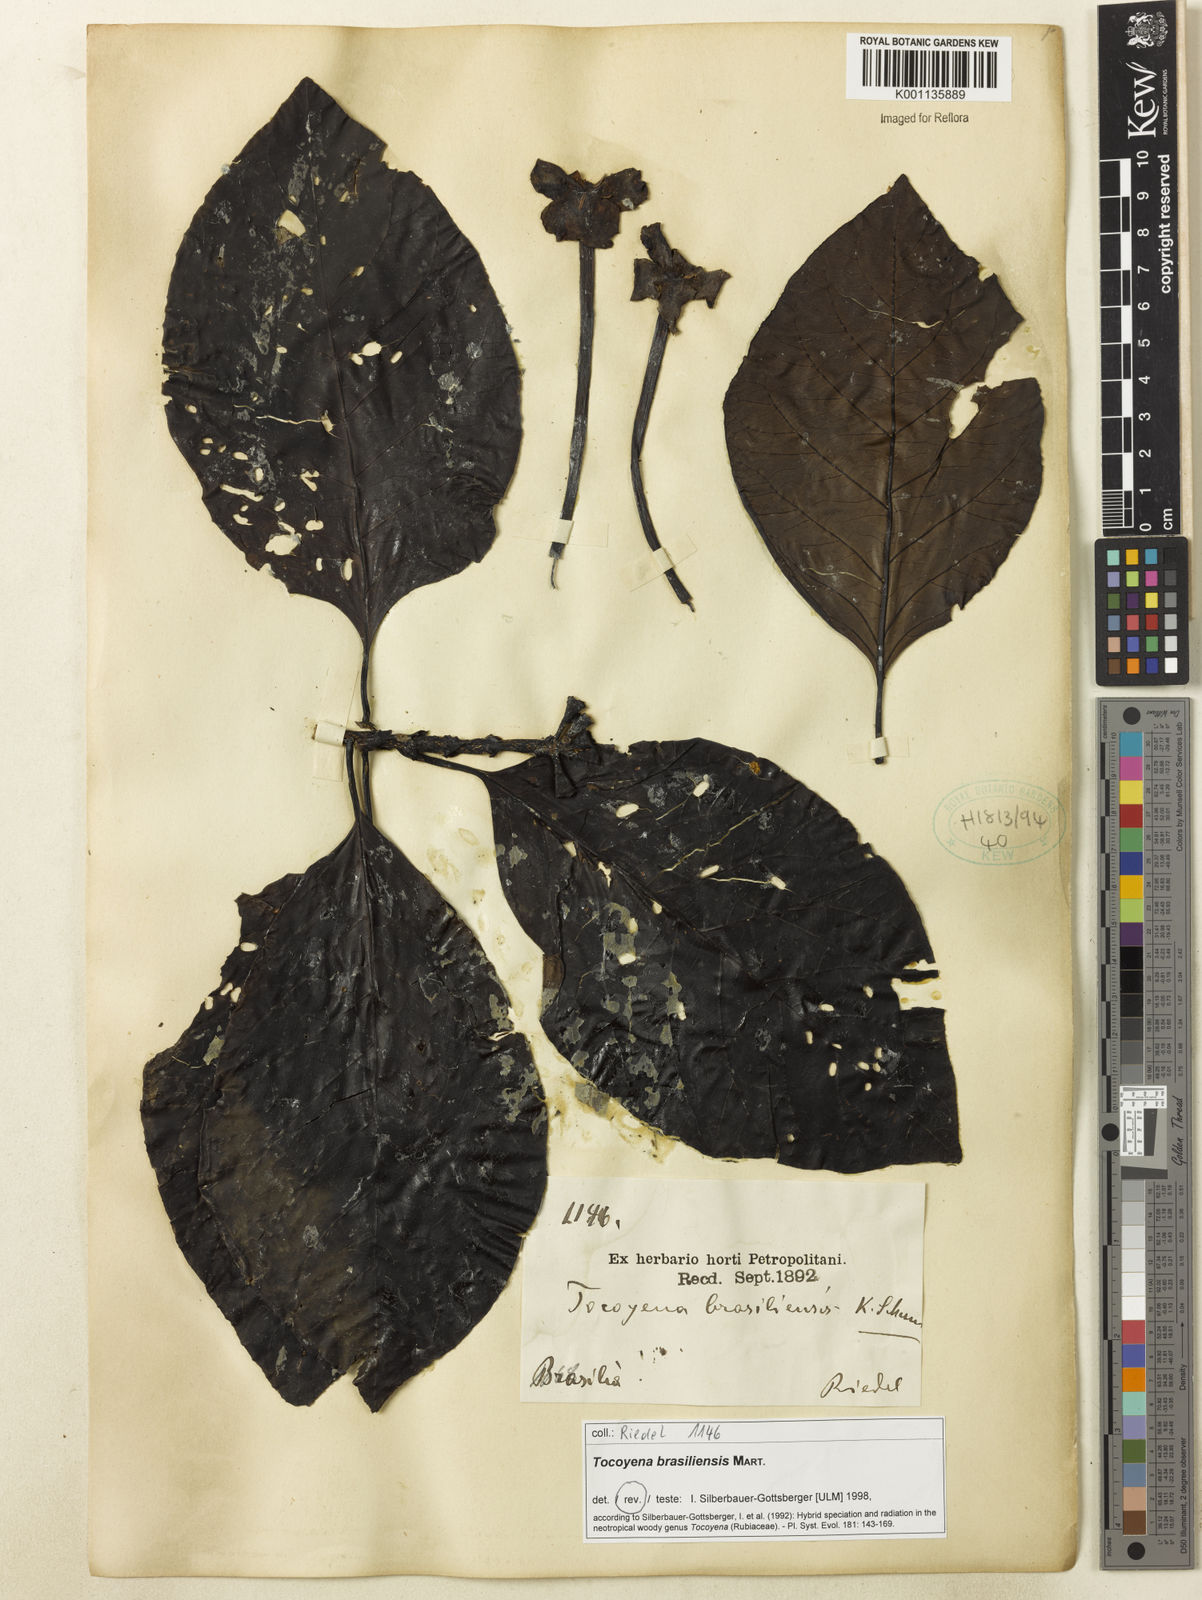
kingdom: Plantae
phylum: Tracheophyta
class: Magnoliopsida
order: Gentianales
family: Rubiaceae
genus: Tocoyena
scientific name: Tocoyena sprucei
